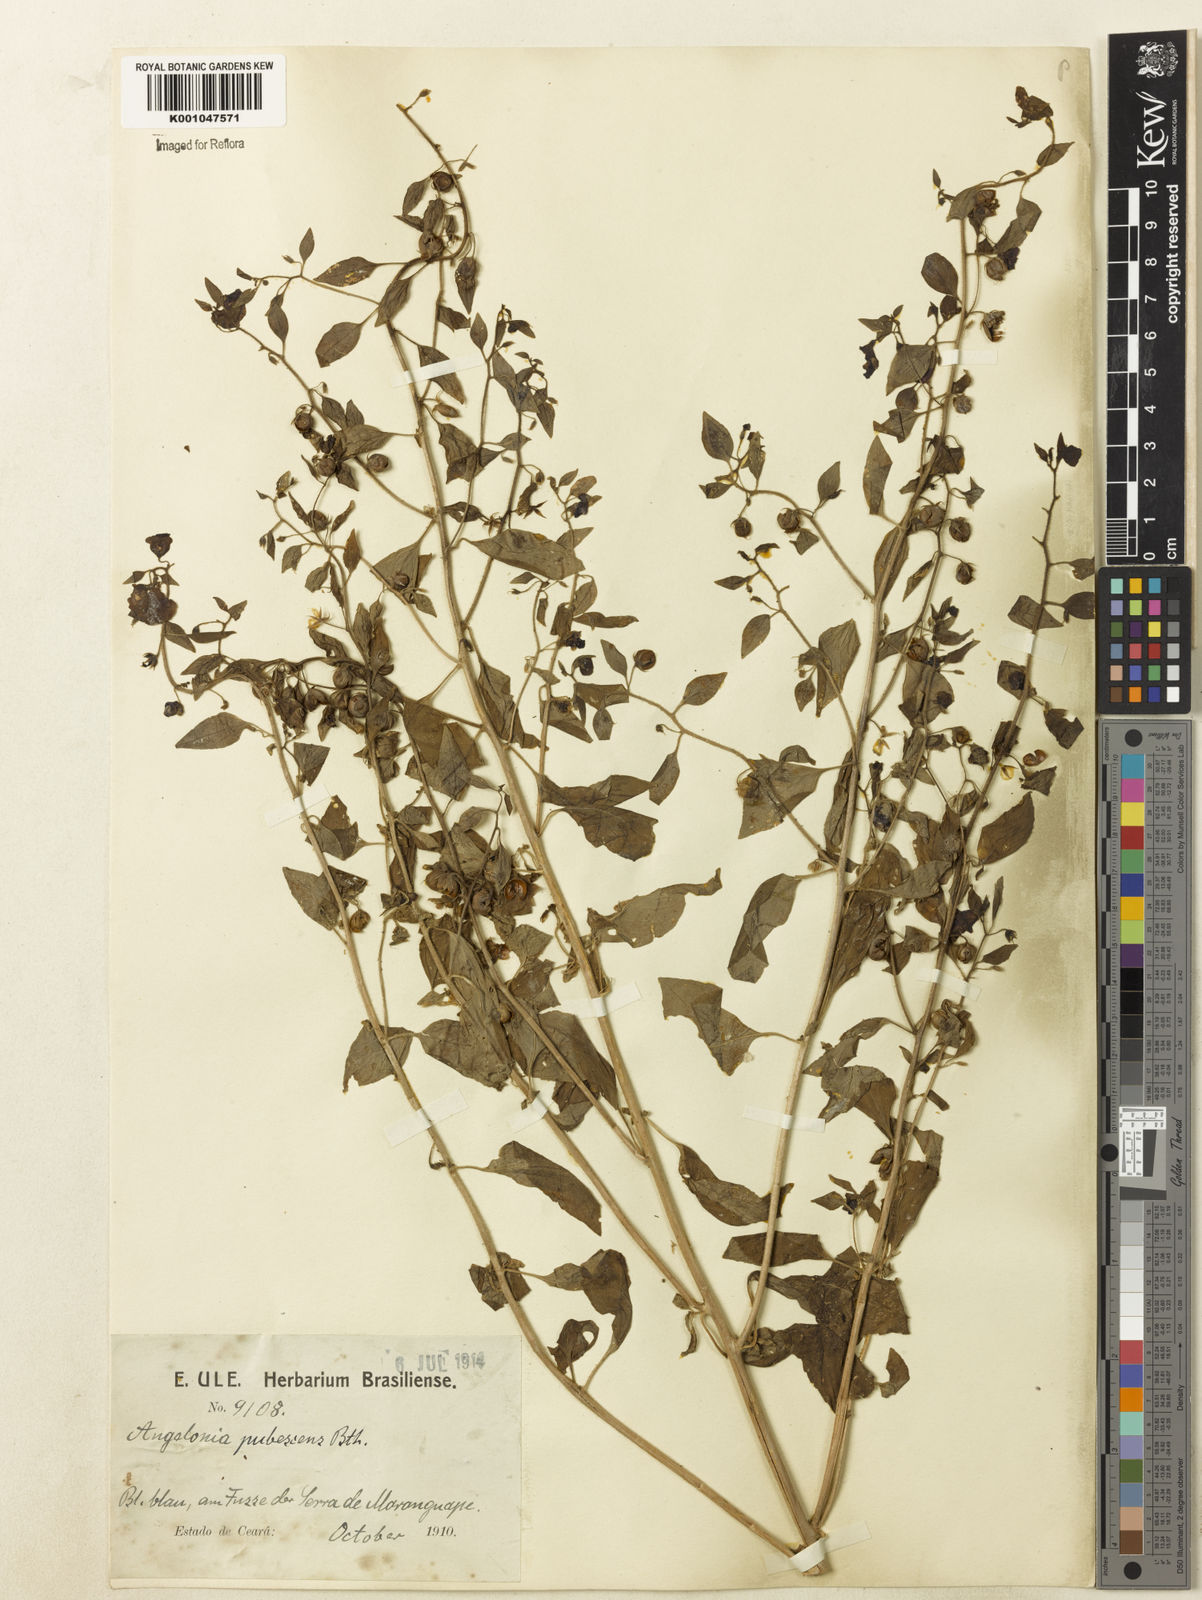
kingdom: Plantae
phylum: Tracheophyta
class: Magnoliopsida
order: Lamiales
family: Plantaginaceae
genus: Angelonia
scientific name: Angelonia pubescens
